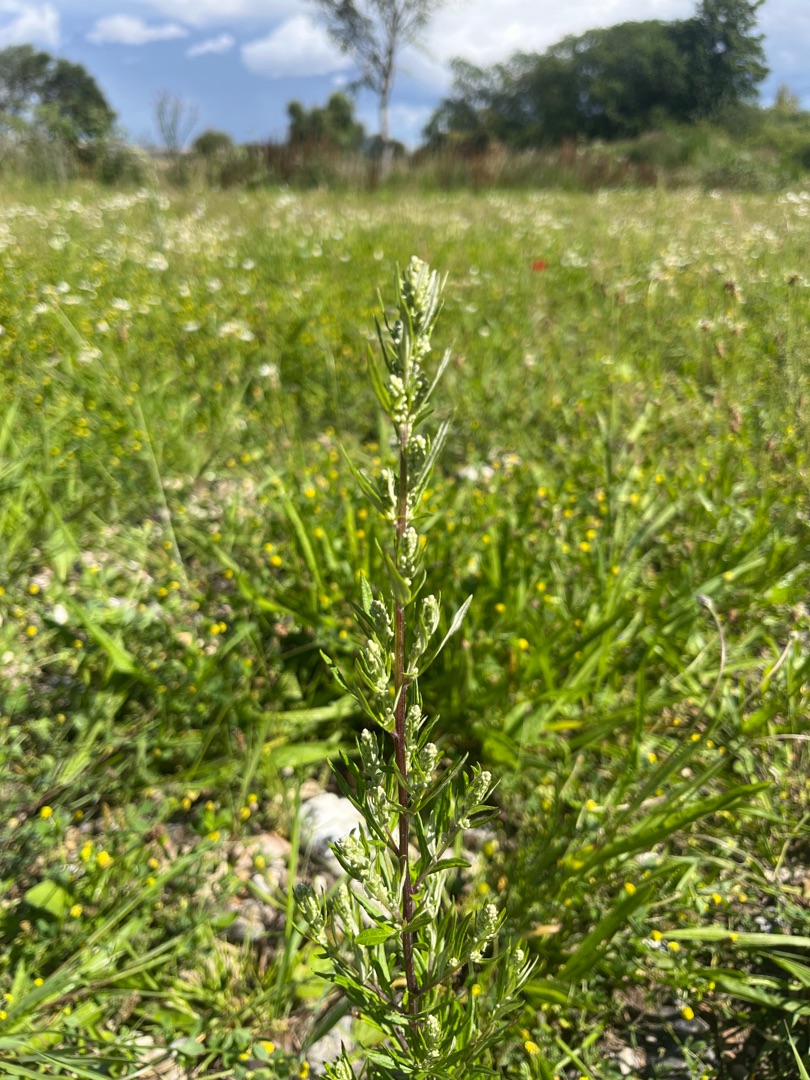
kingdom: Plantae
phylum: Tracheophyta
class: Magnoliopsida
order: Asterales
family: Asteraceae
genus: Artemisia
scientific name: Artemisia vulgaris
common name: Grå-bynke
